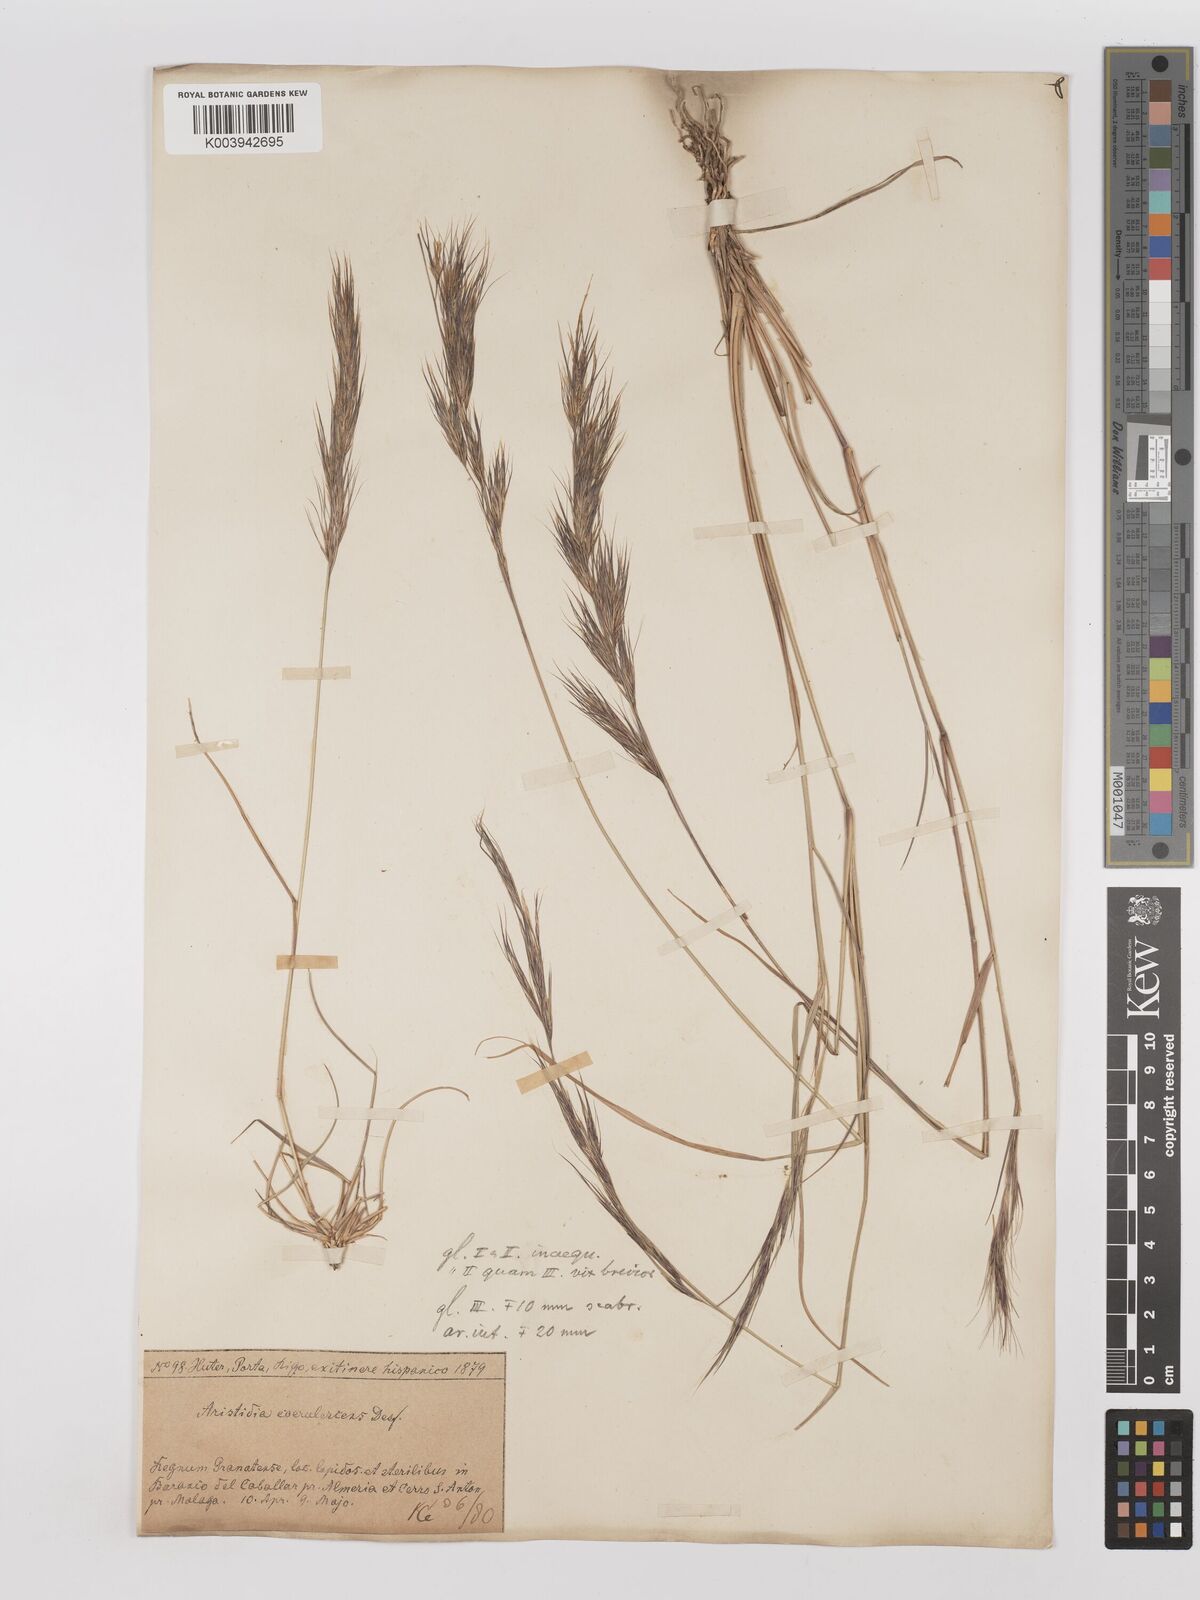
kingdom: Plantae
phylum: Tracheophyta
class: Liliopsida
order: Poales
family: Poaceae
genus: Aristida
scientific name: Aristida adscensionis
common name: Sixweeks threeawn
